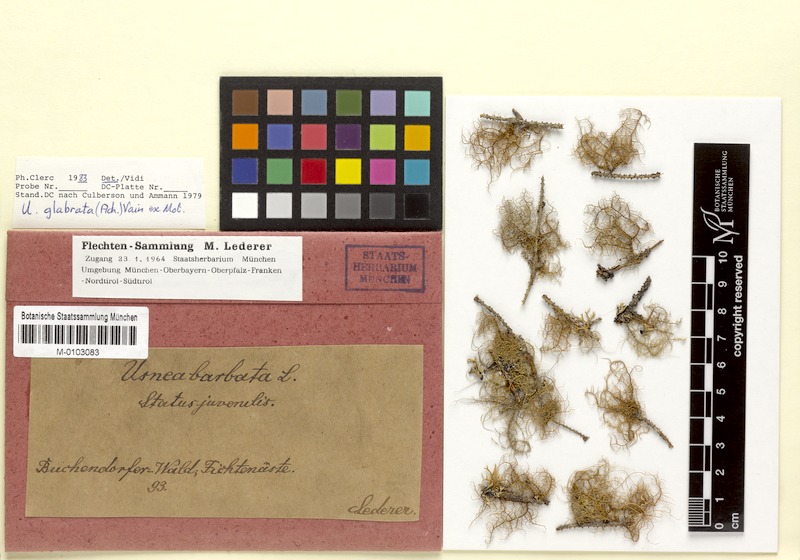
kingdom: Fungi
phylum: Ascomycota
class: Lecanoromycetes
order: Lecanorales
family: Parmeliaceae
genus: Usnea
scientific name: Usnea glabrata
